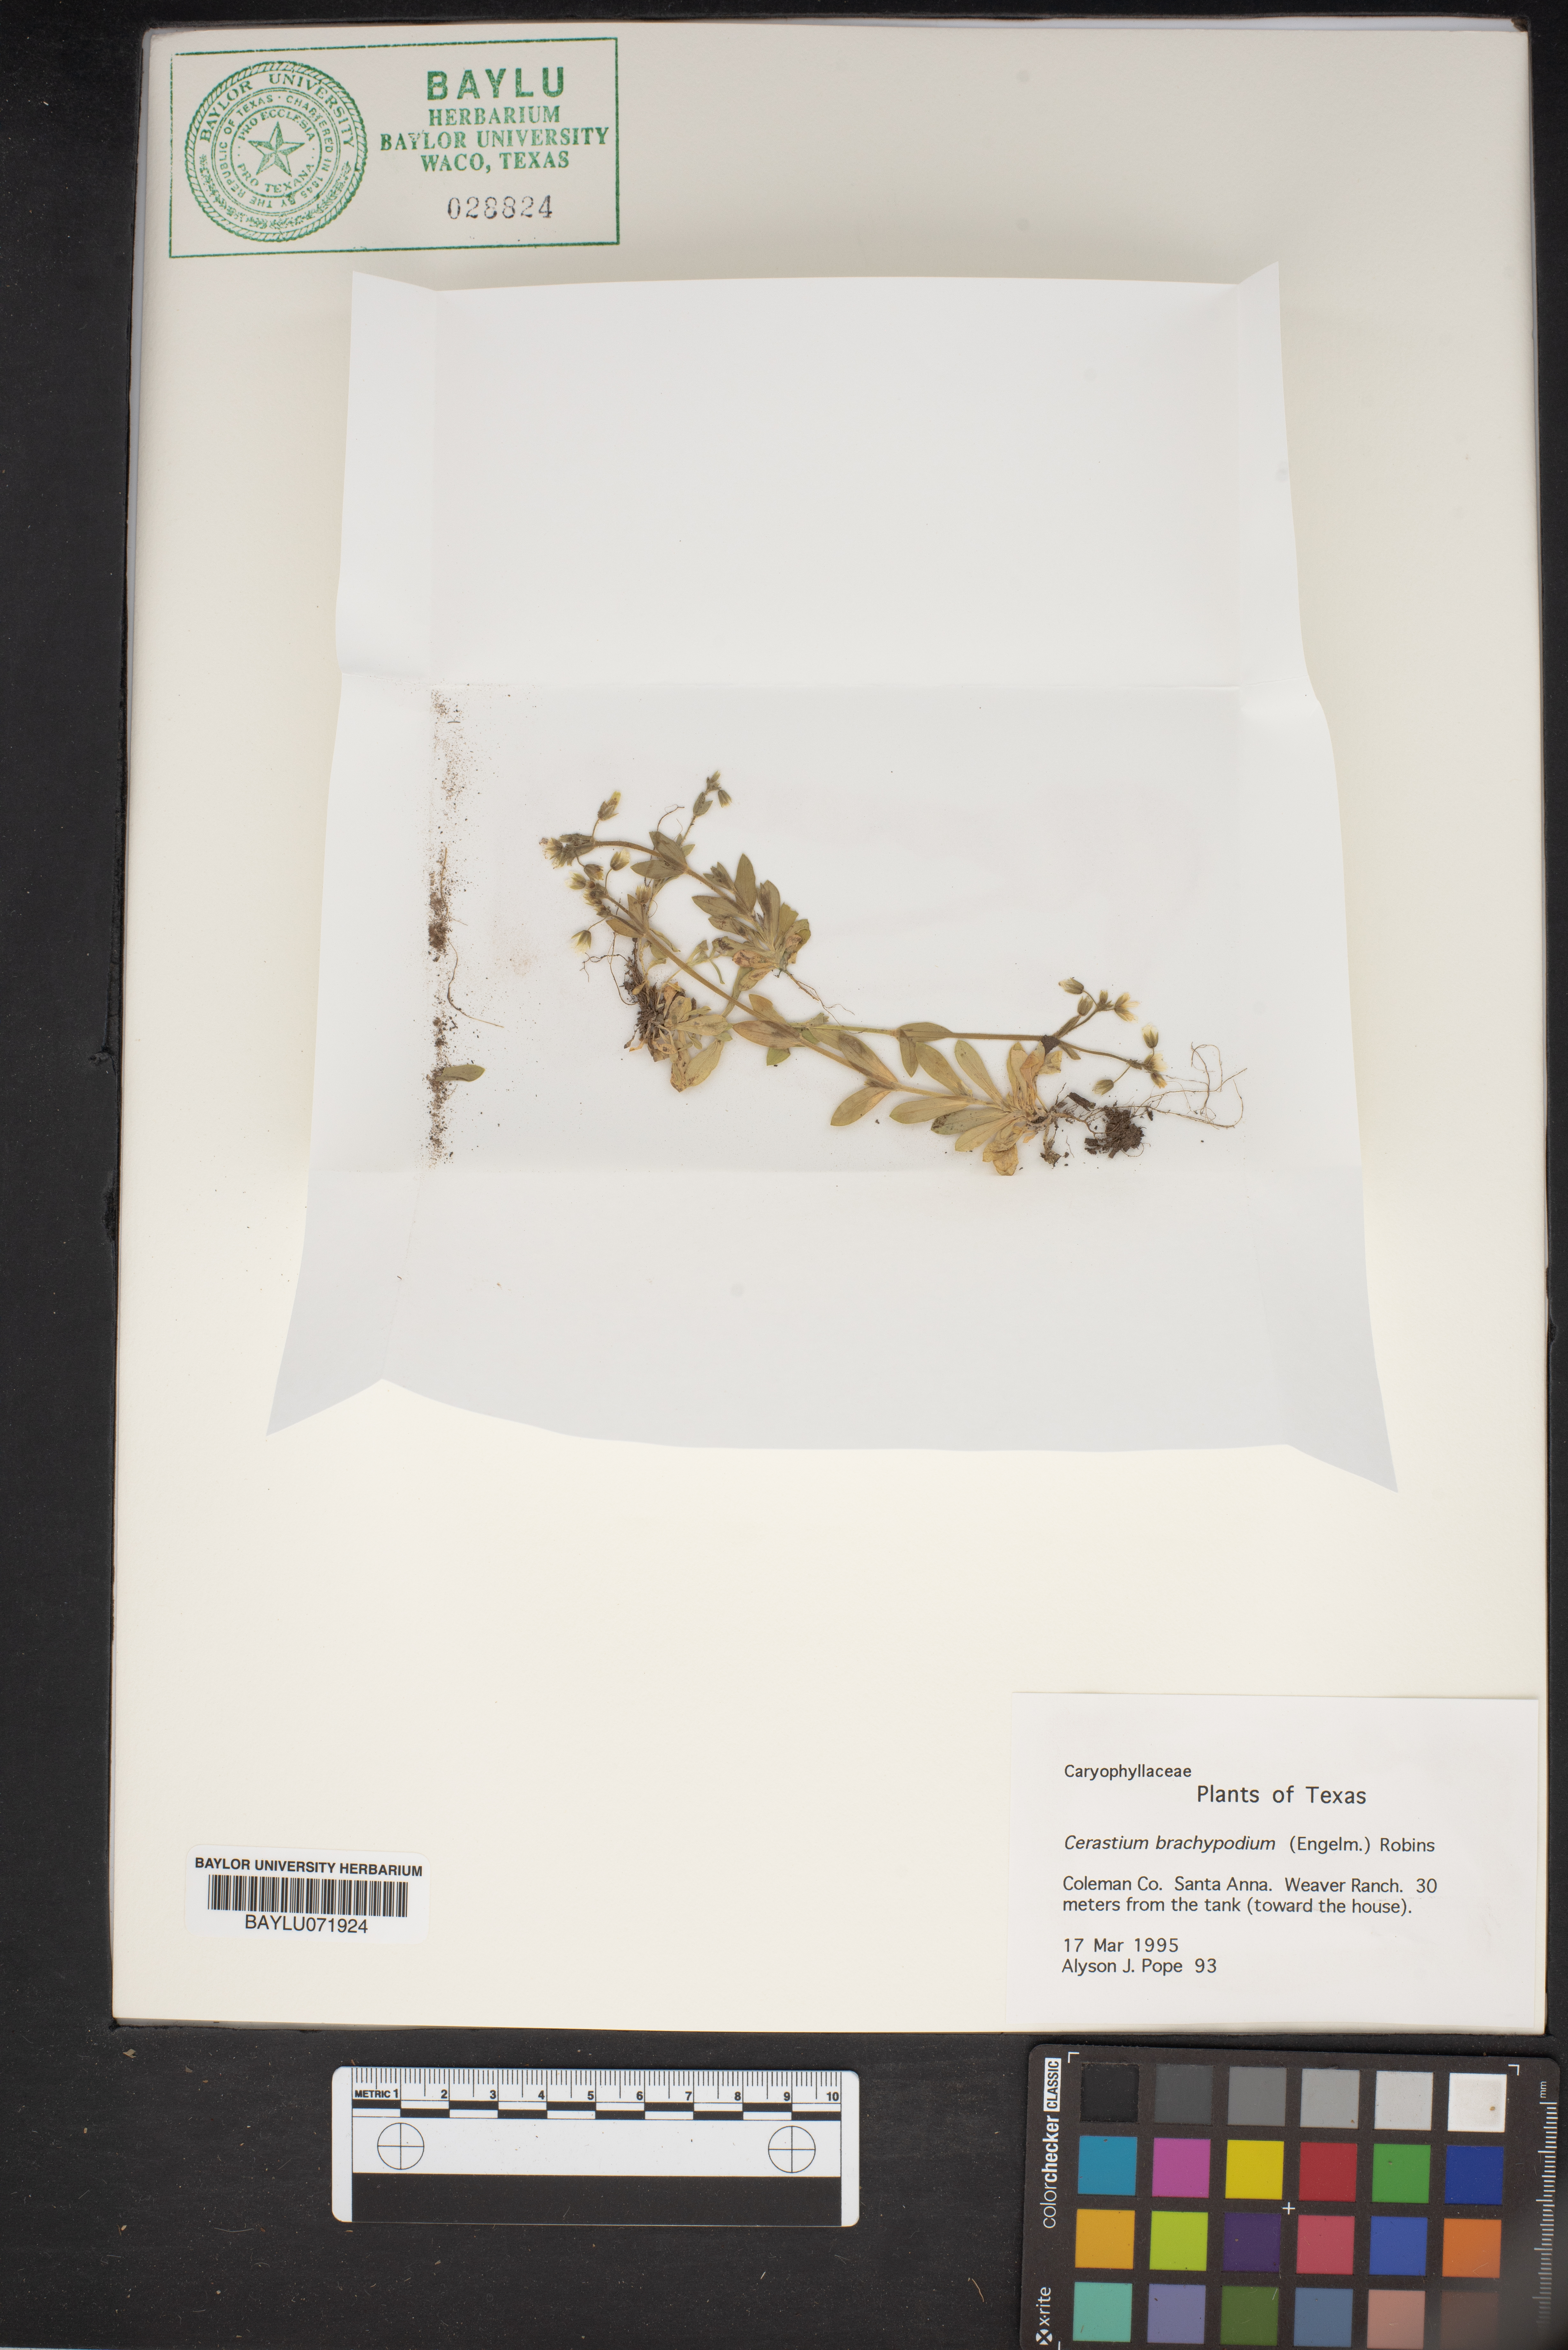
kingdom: Plantae
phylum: Tracheophyta
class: Magnoliopsida
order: Caryophyllales
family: Caryophyllaceae
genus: Cerastium
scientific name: Cerastium brachypodum
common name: Short-pedicelled nodding chickweed
